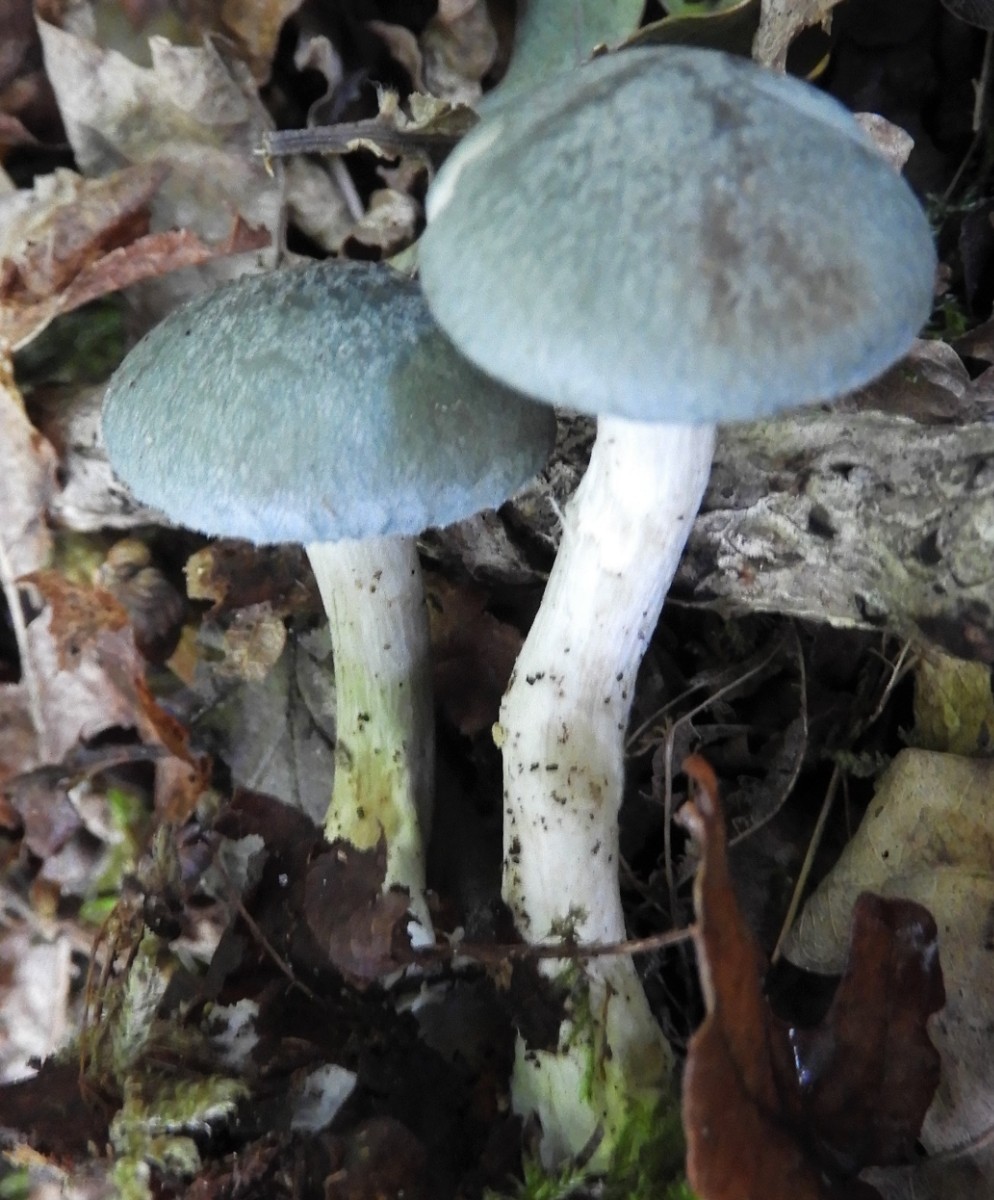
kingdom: Fungi
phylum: Basidiomycota
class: Agaricomycetes
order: Agaricales
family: Tricholomataceae
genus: Clitocybe
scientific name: Clitocybe odora
